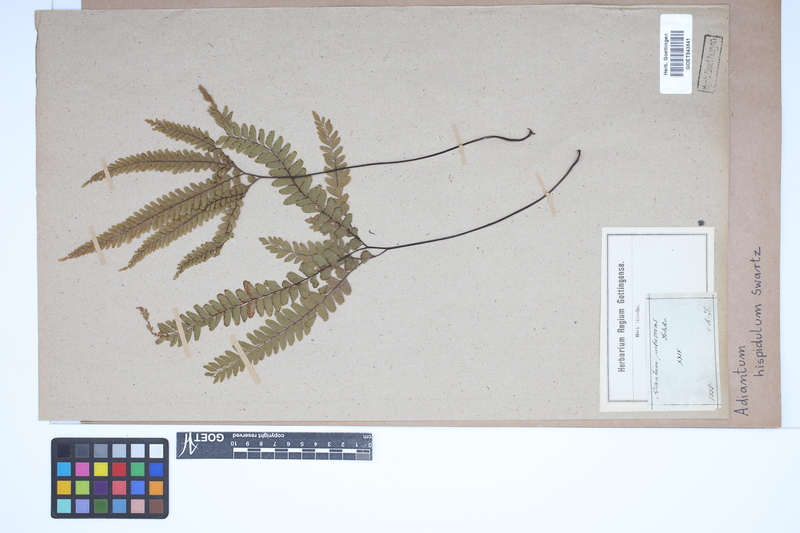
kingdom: Plantae
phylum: Tracheophyta
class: Polypodiopsida
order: Polypodiales
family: Pteridaceae
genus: Adiantum
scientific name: Adiantum hispidulum
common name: Rough maidenhair
